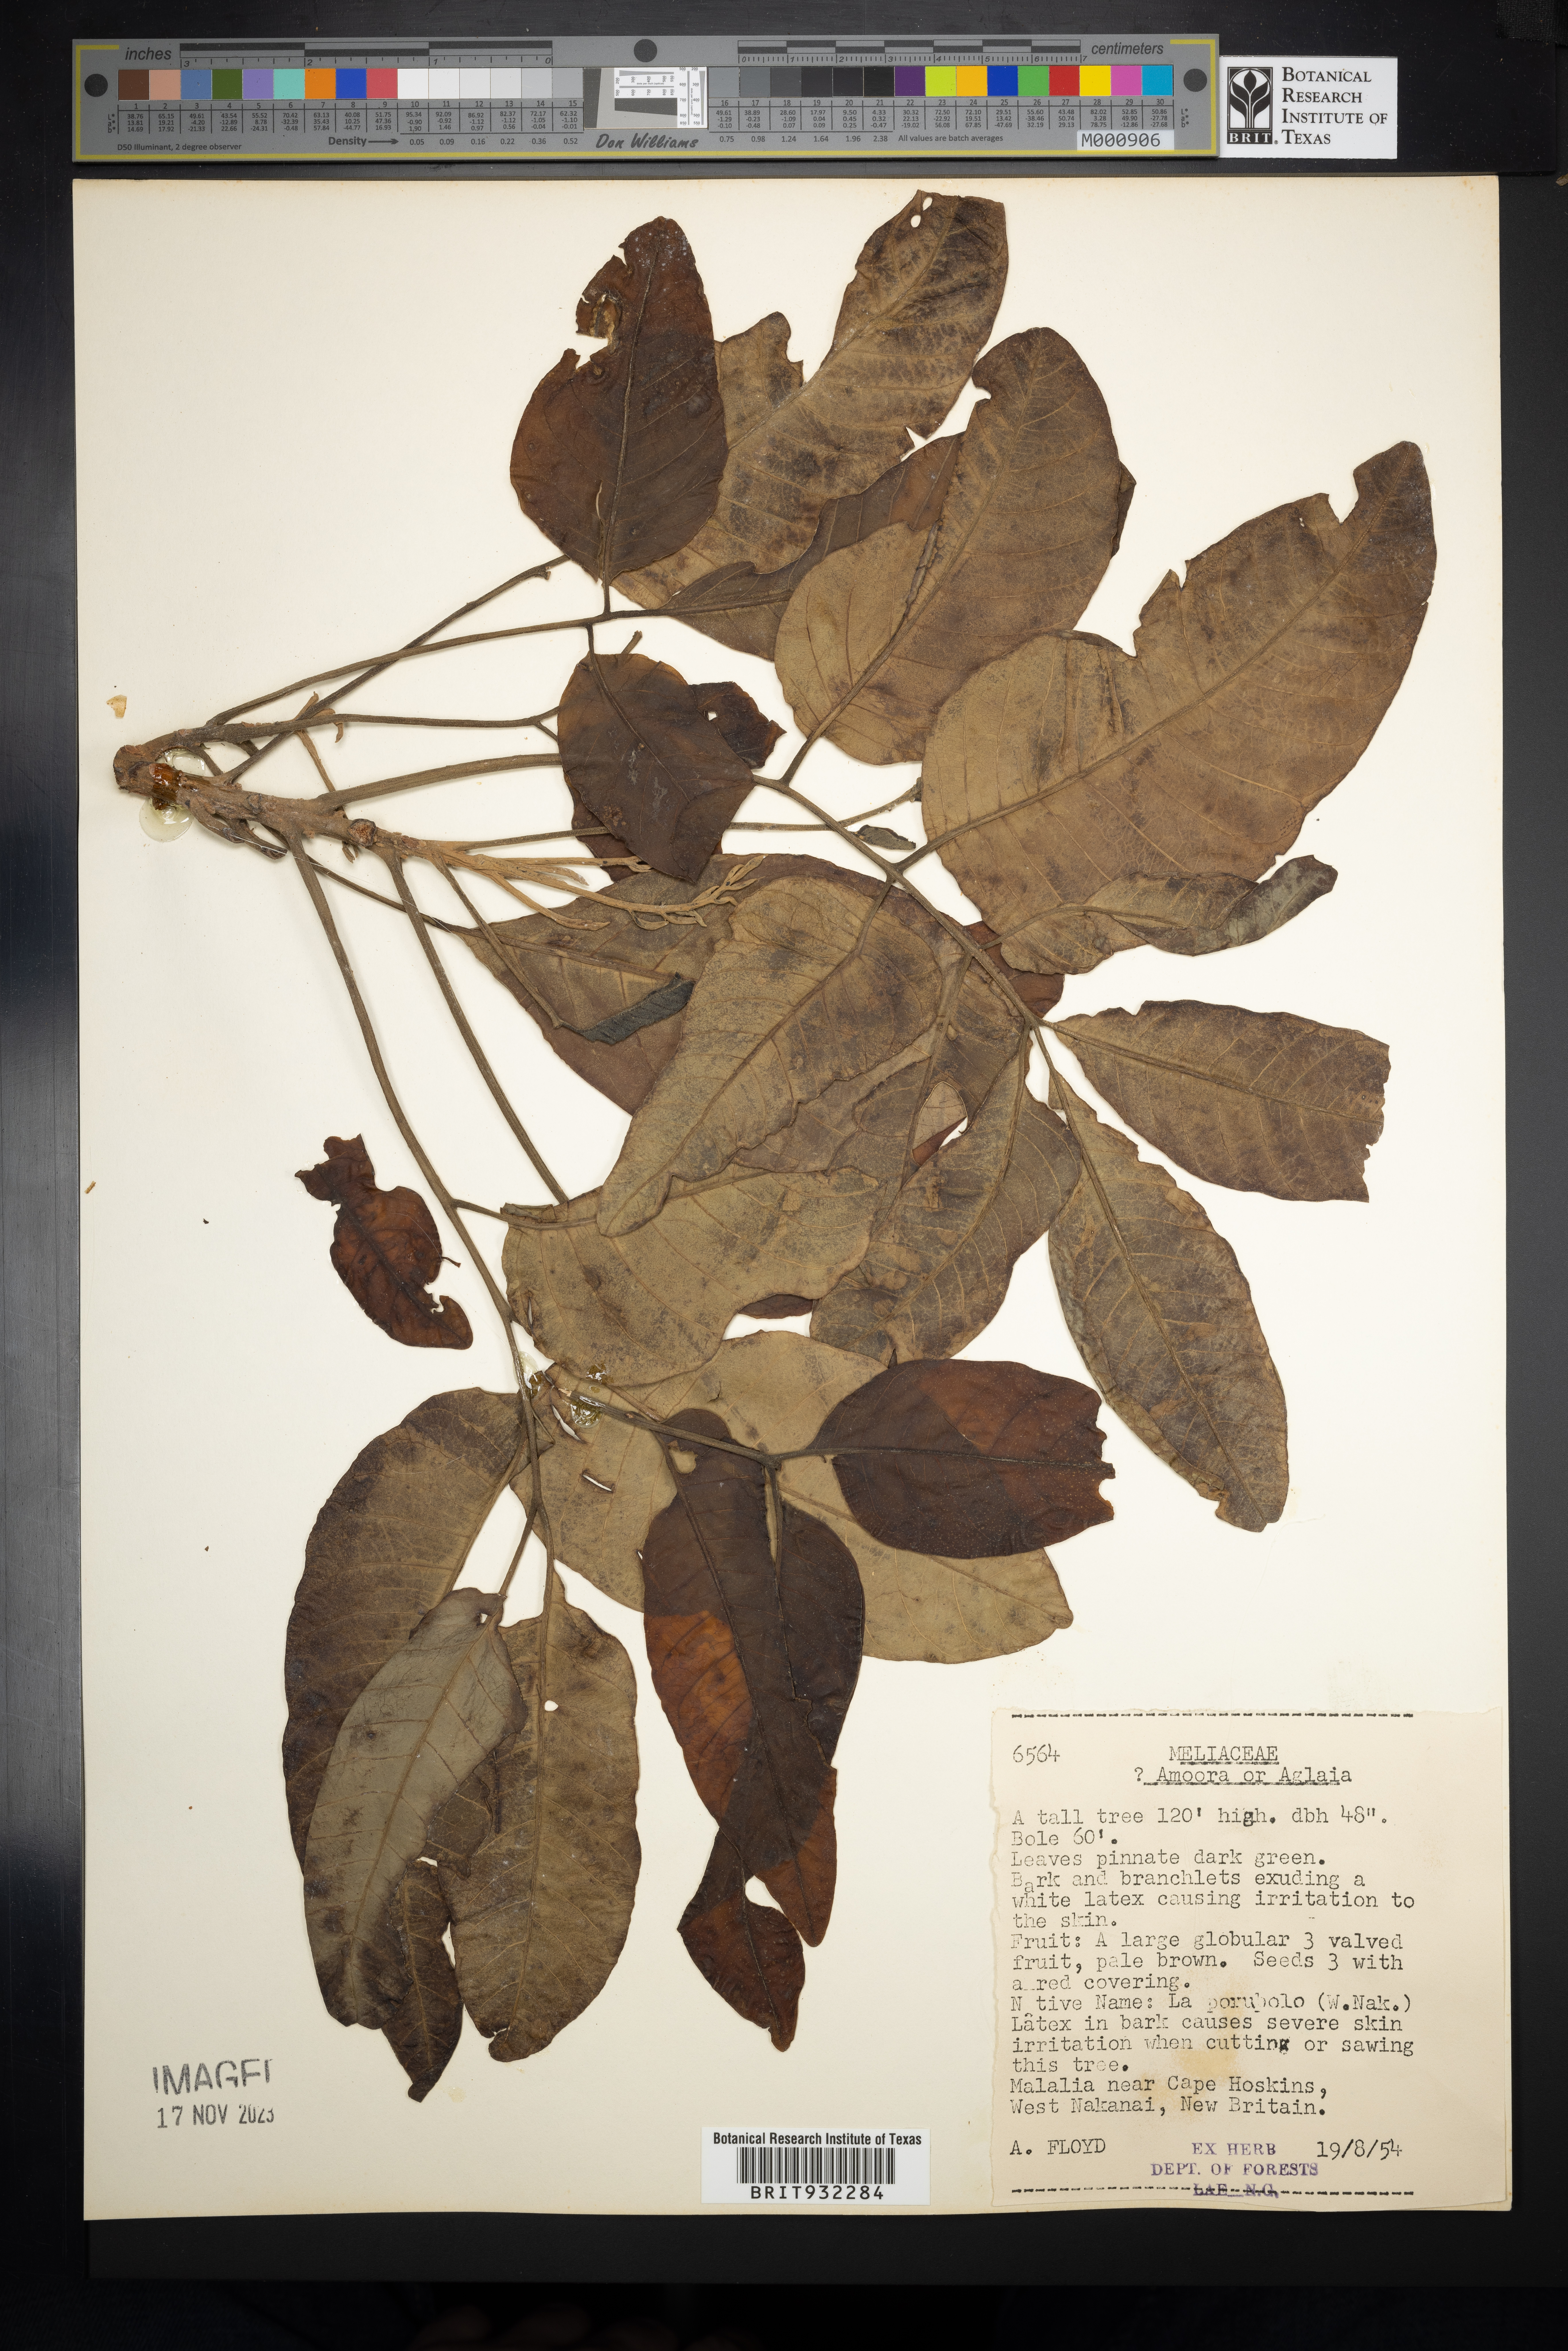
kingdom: Plantae
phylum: Tracheophyta
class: Magnoliopsida
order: Sapindales
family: Meliaceae
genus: Aglaia
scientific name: Aglaia
